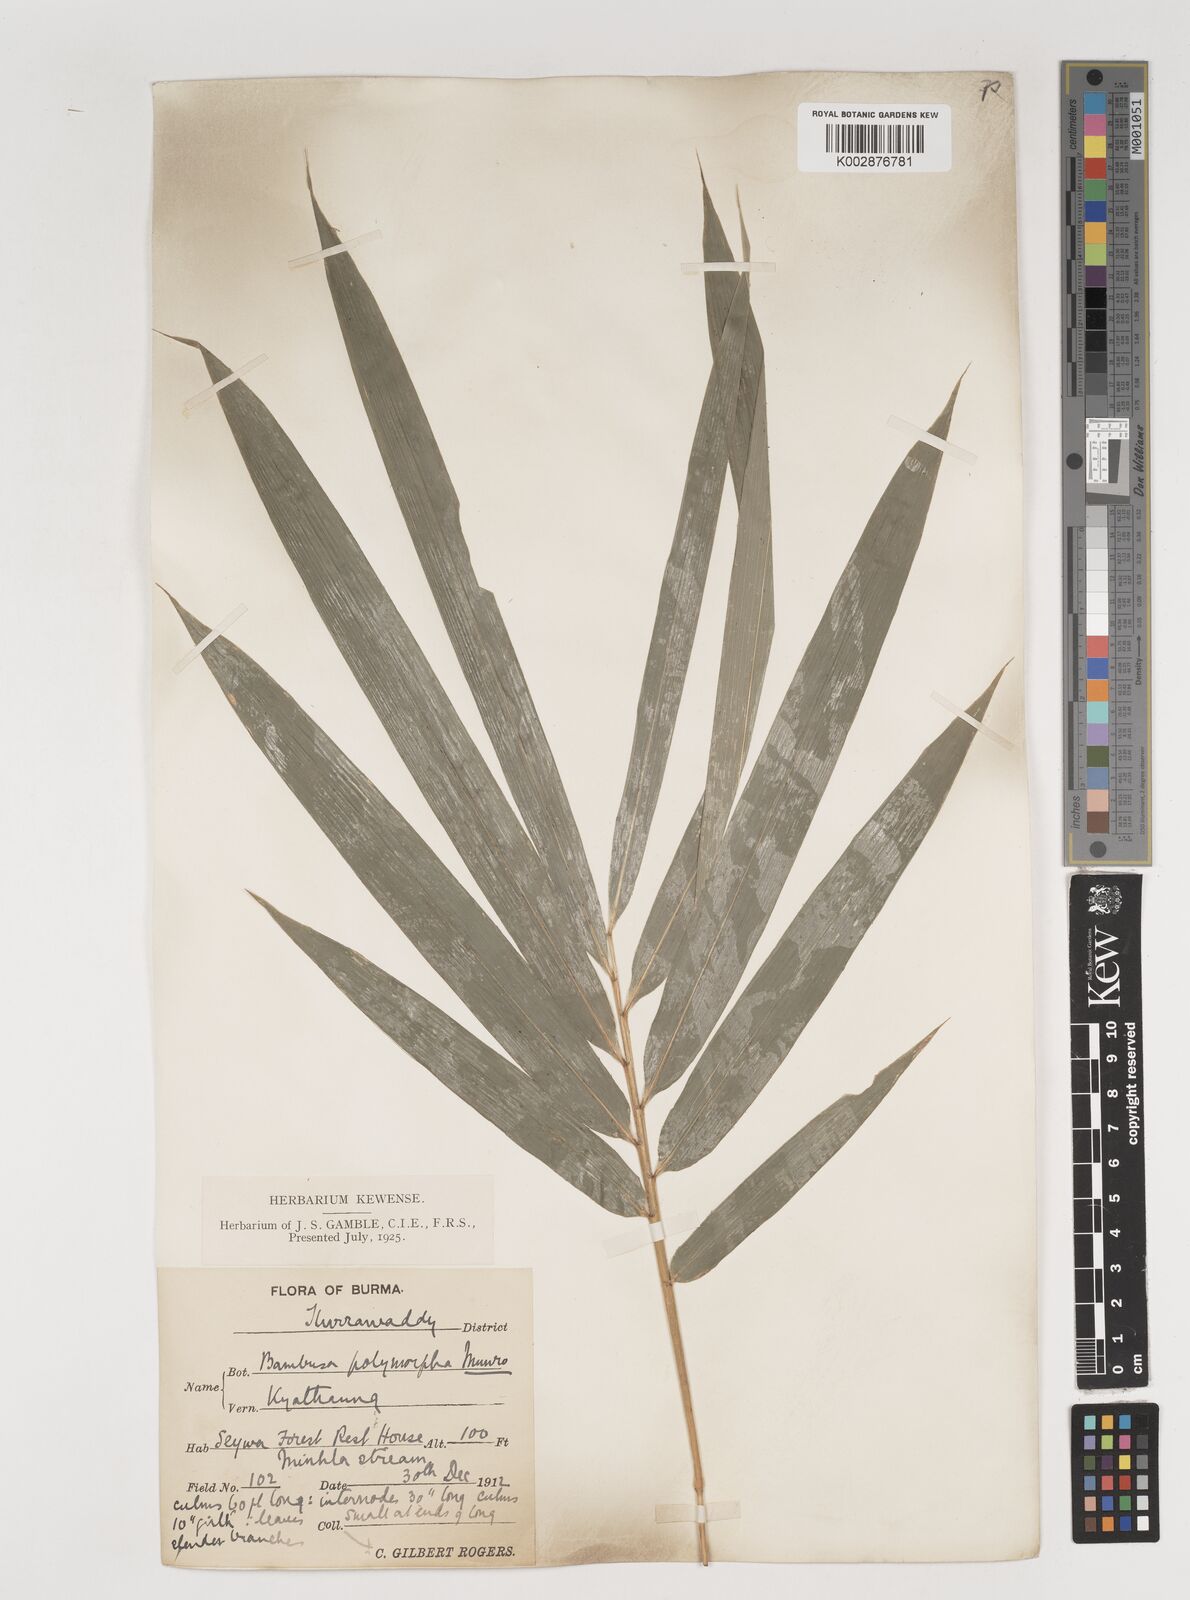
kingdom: Plantae
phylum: Tracheophyta
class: Liliopsida
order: Poales
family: Poaceae
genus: Bambusa
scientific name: Bambusa polymorpha
